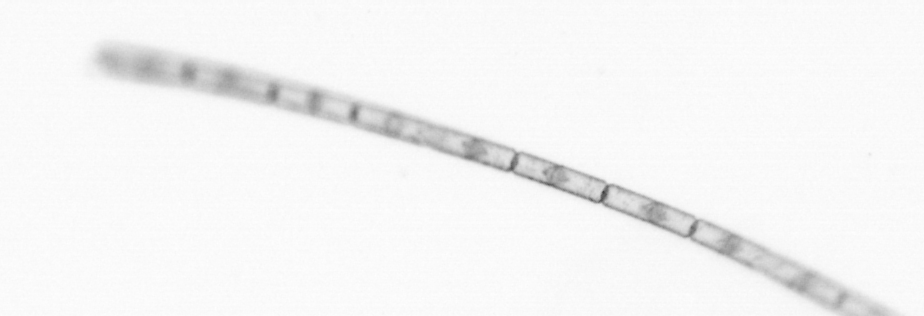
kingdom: Chromista
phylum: Ochrophyta
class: Bacillariophyceae
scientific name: Bacillariophyceae
